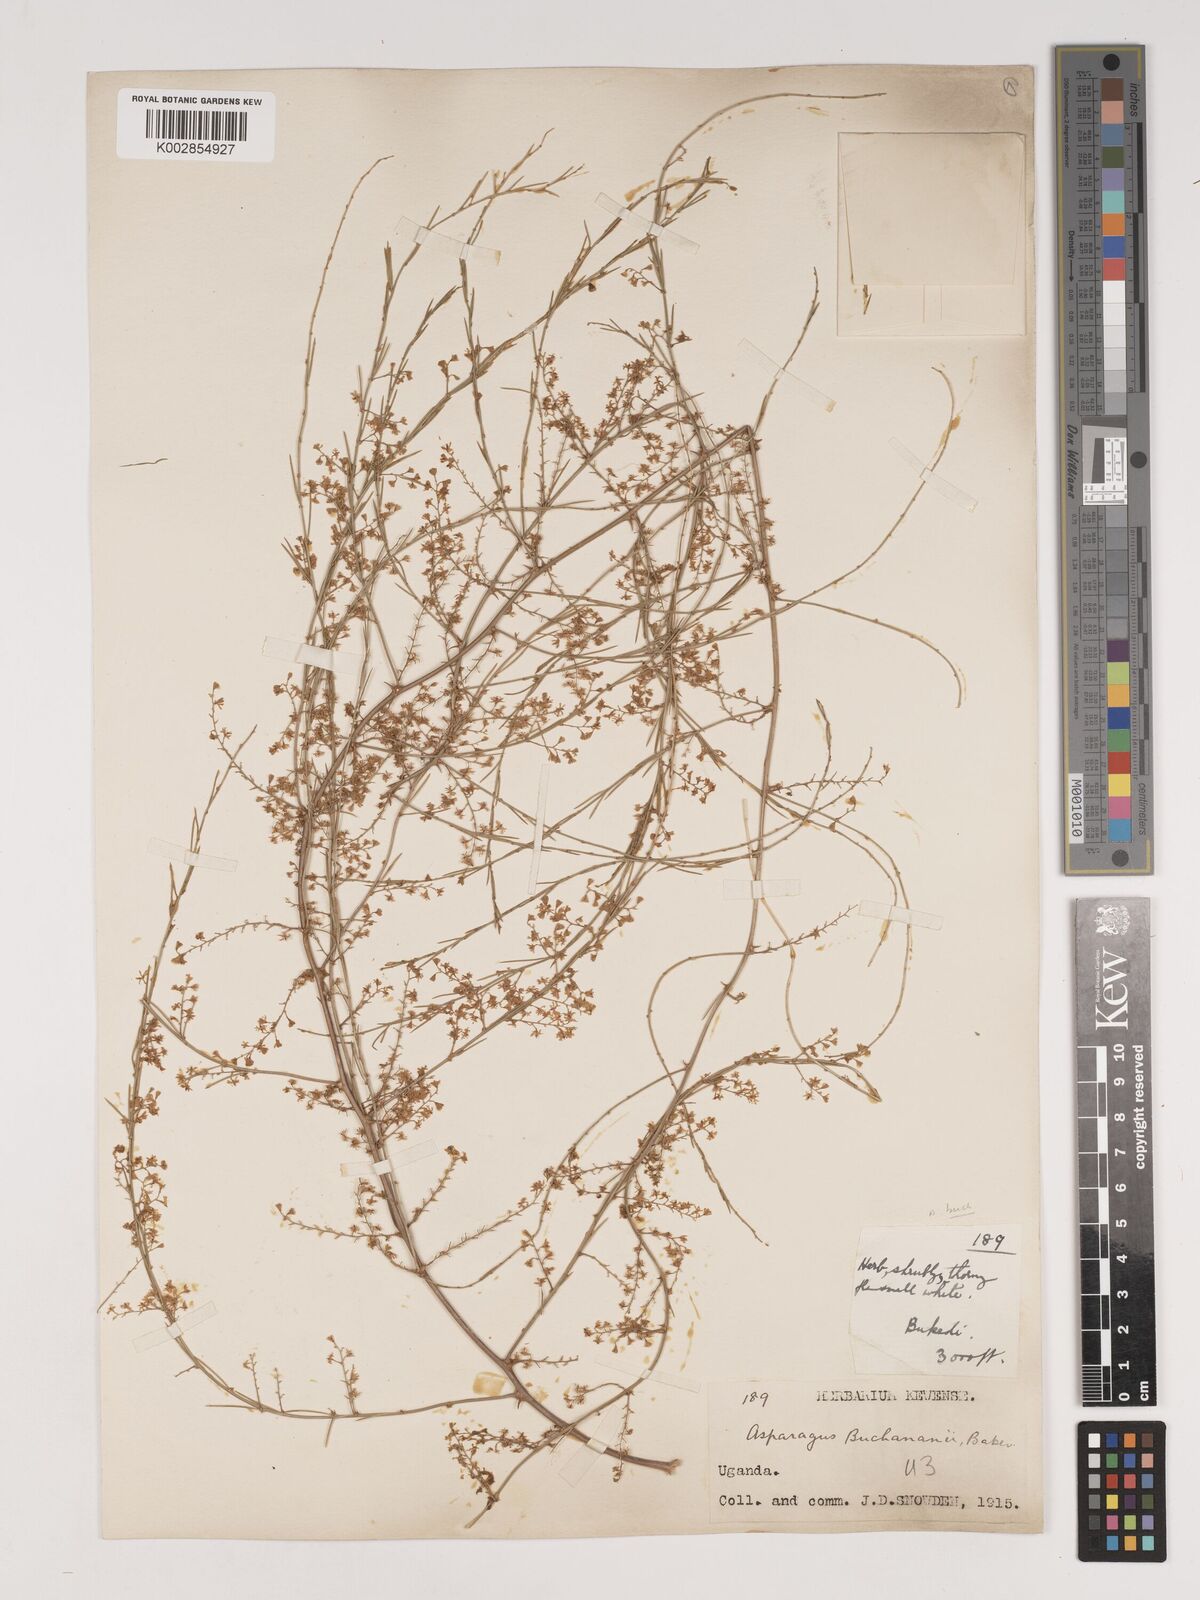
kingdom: Plantae
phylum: Tracheophyta
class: Liliopsida
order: Asparagales
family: Asparagaceae
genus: Asparagus
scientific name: Asparagus buchananii
